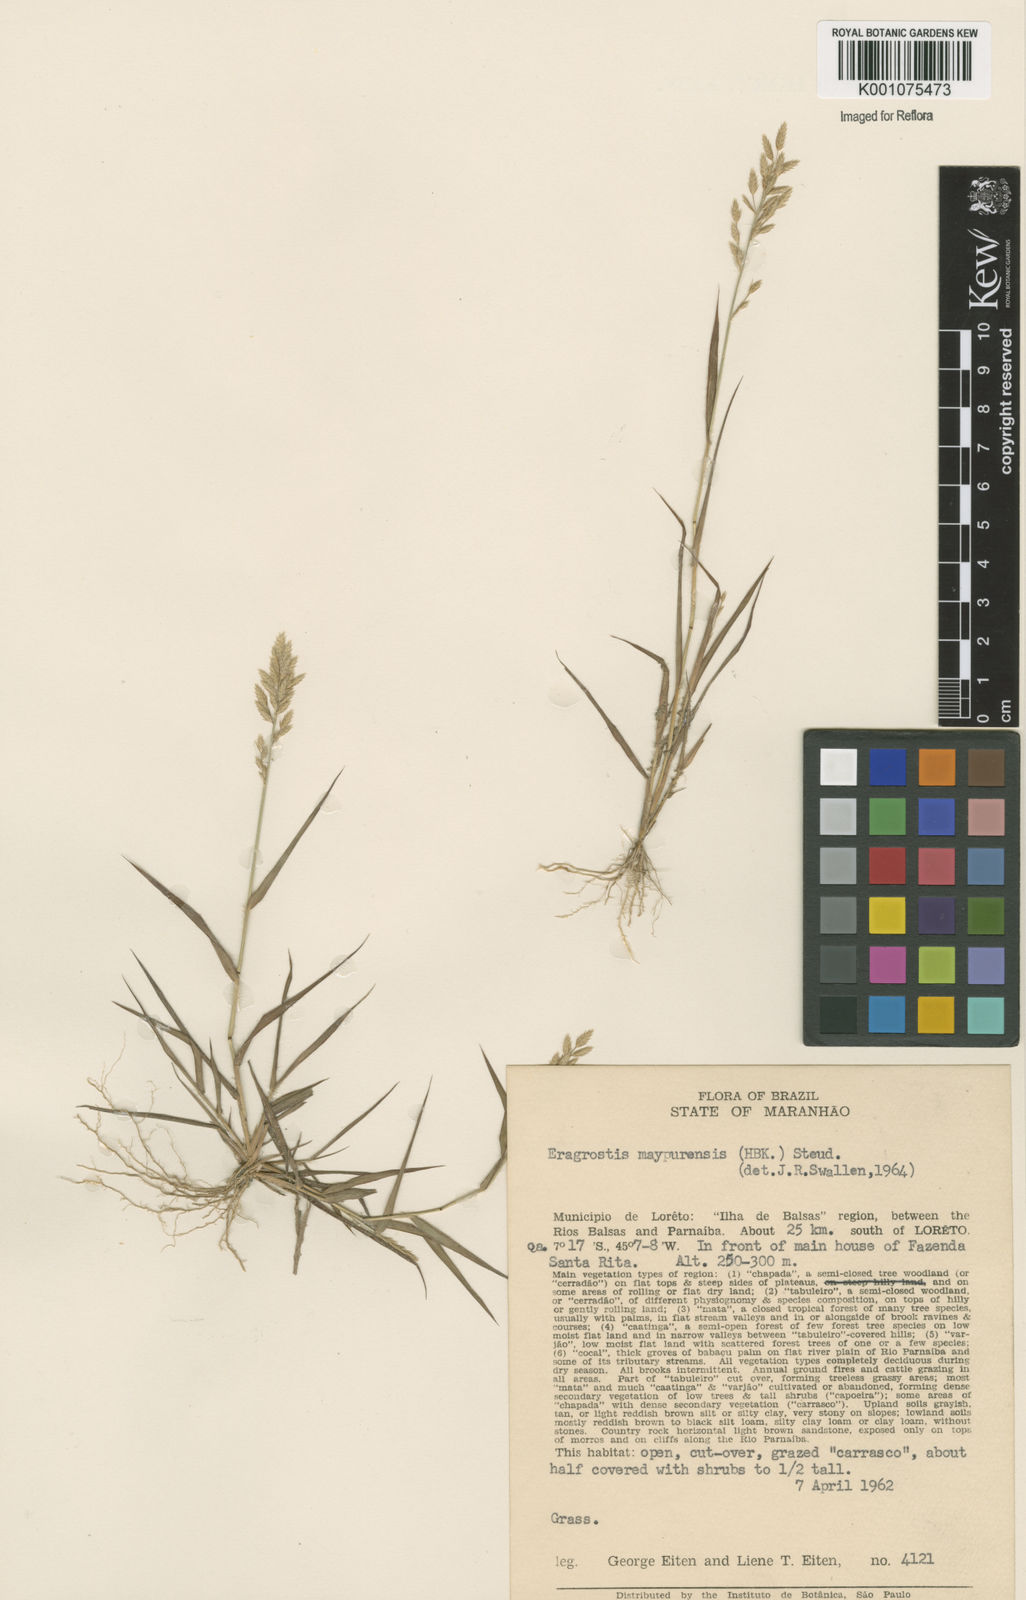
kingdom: Plantae
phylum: Tracheophyta
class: Liliopsida
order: Poales
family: Poaceae
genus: Eragrostis
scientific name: Eragrostis maypurensis
